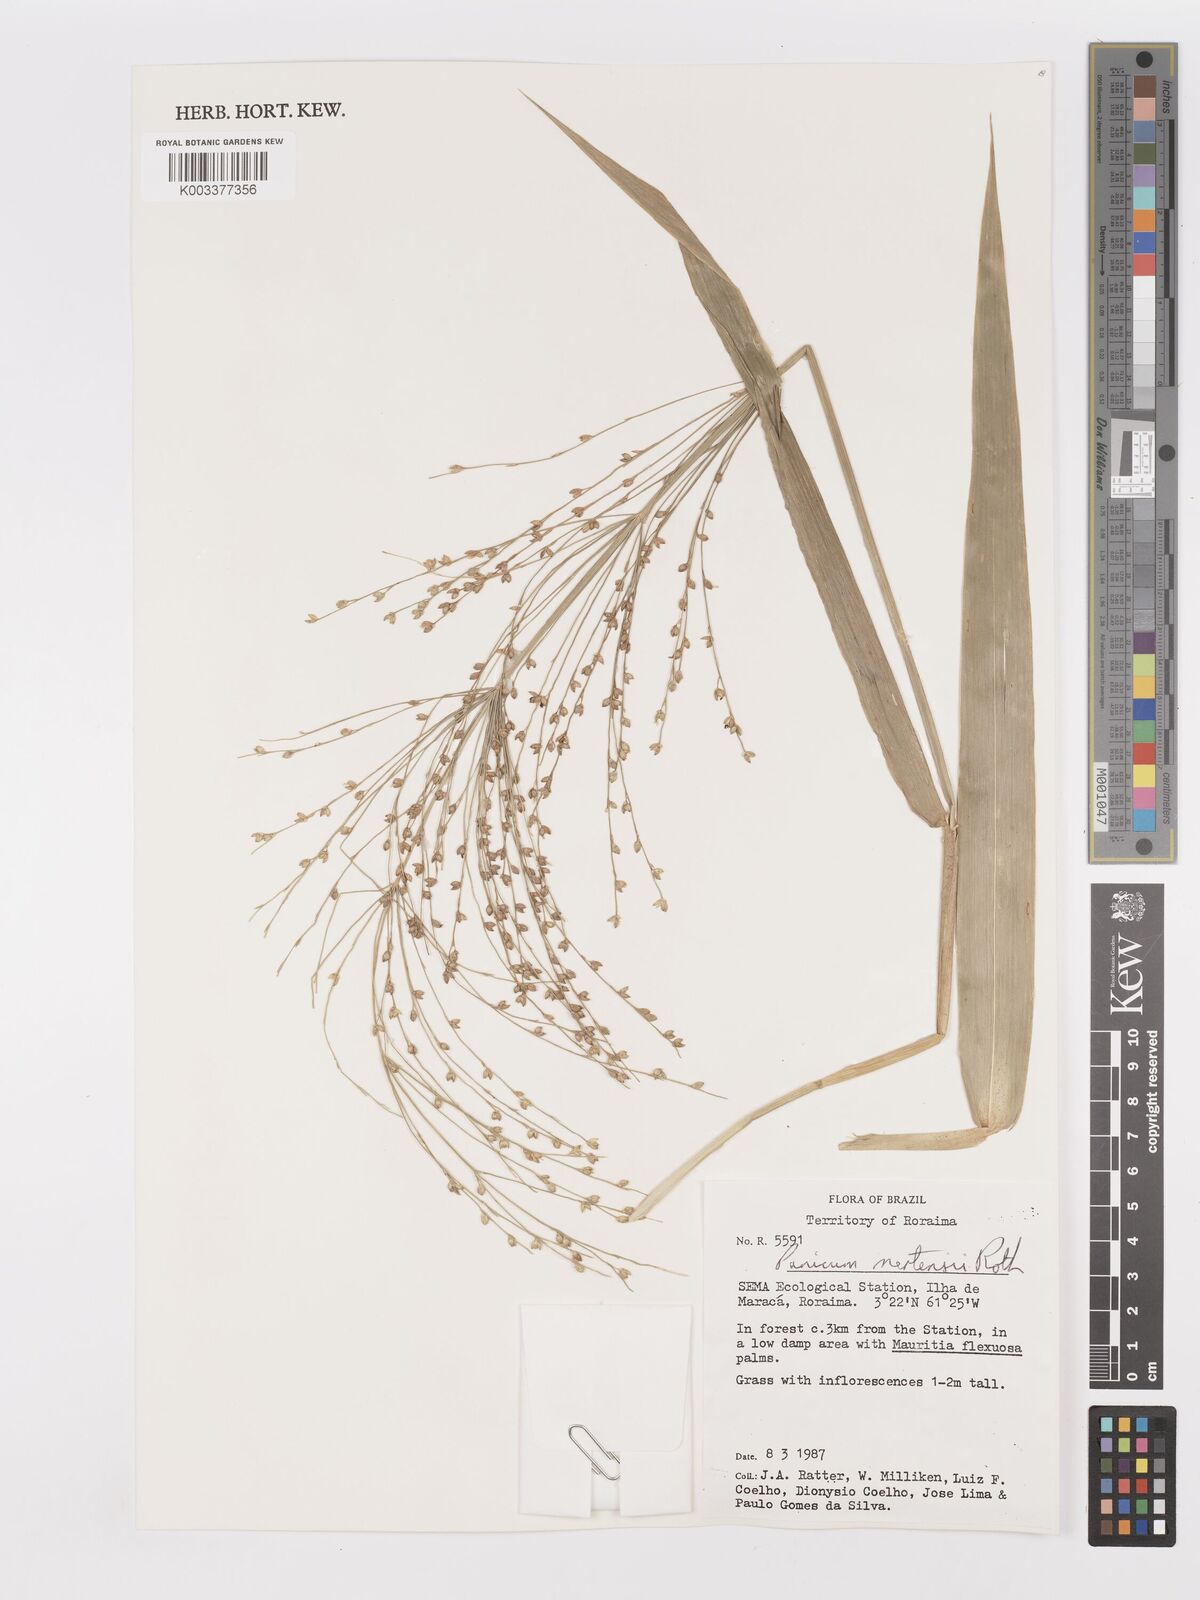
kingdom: Plantae
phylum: Tracheophyta
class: Liliopsida
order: Poales
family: Poaceae
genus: Stephostachys
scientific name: Stephostachys mertensii
